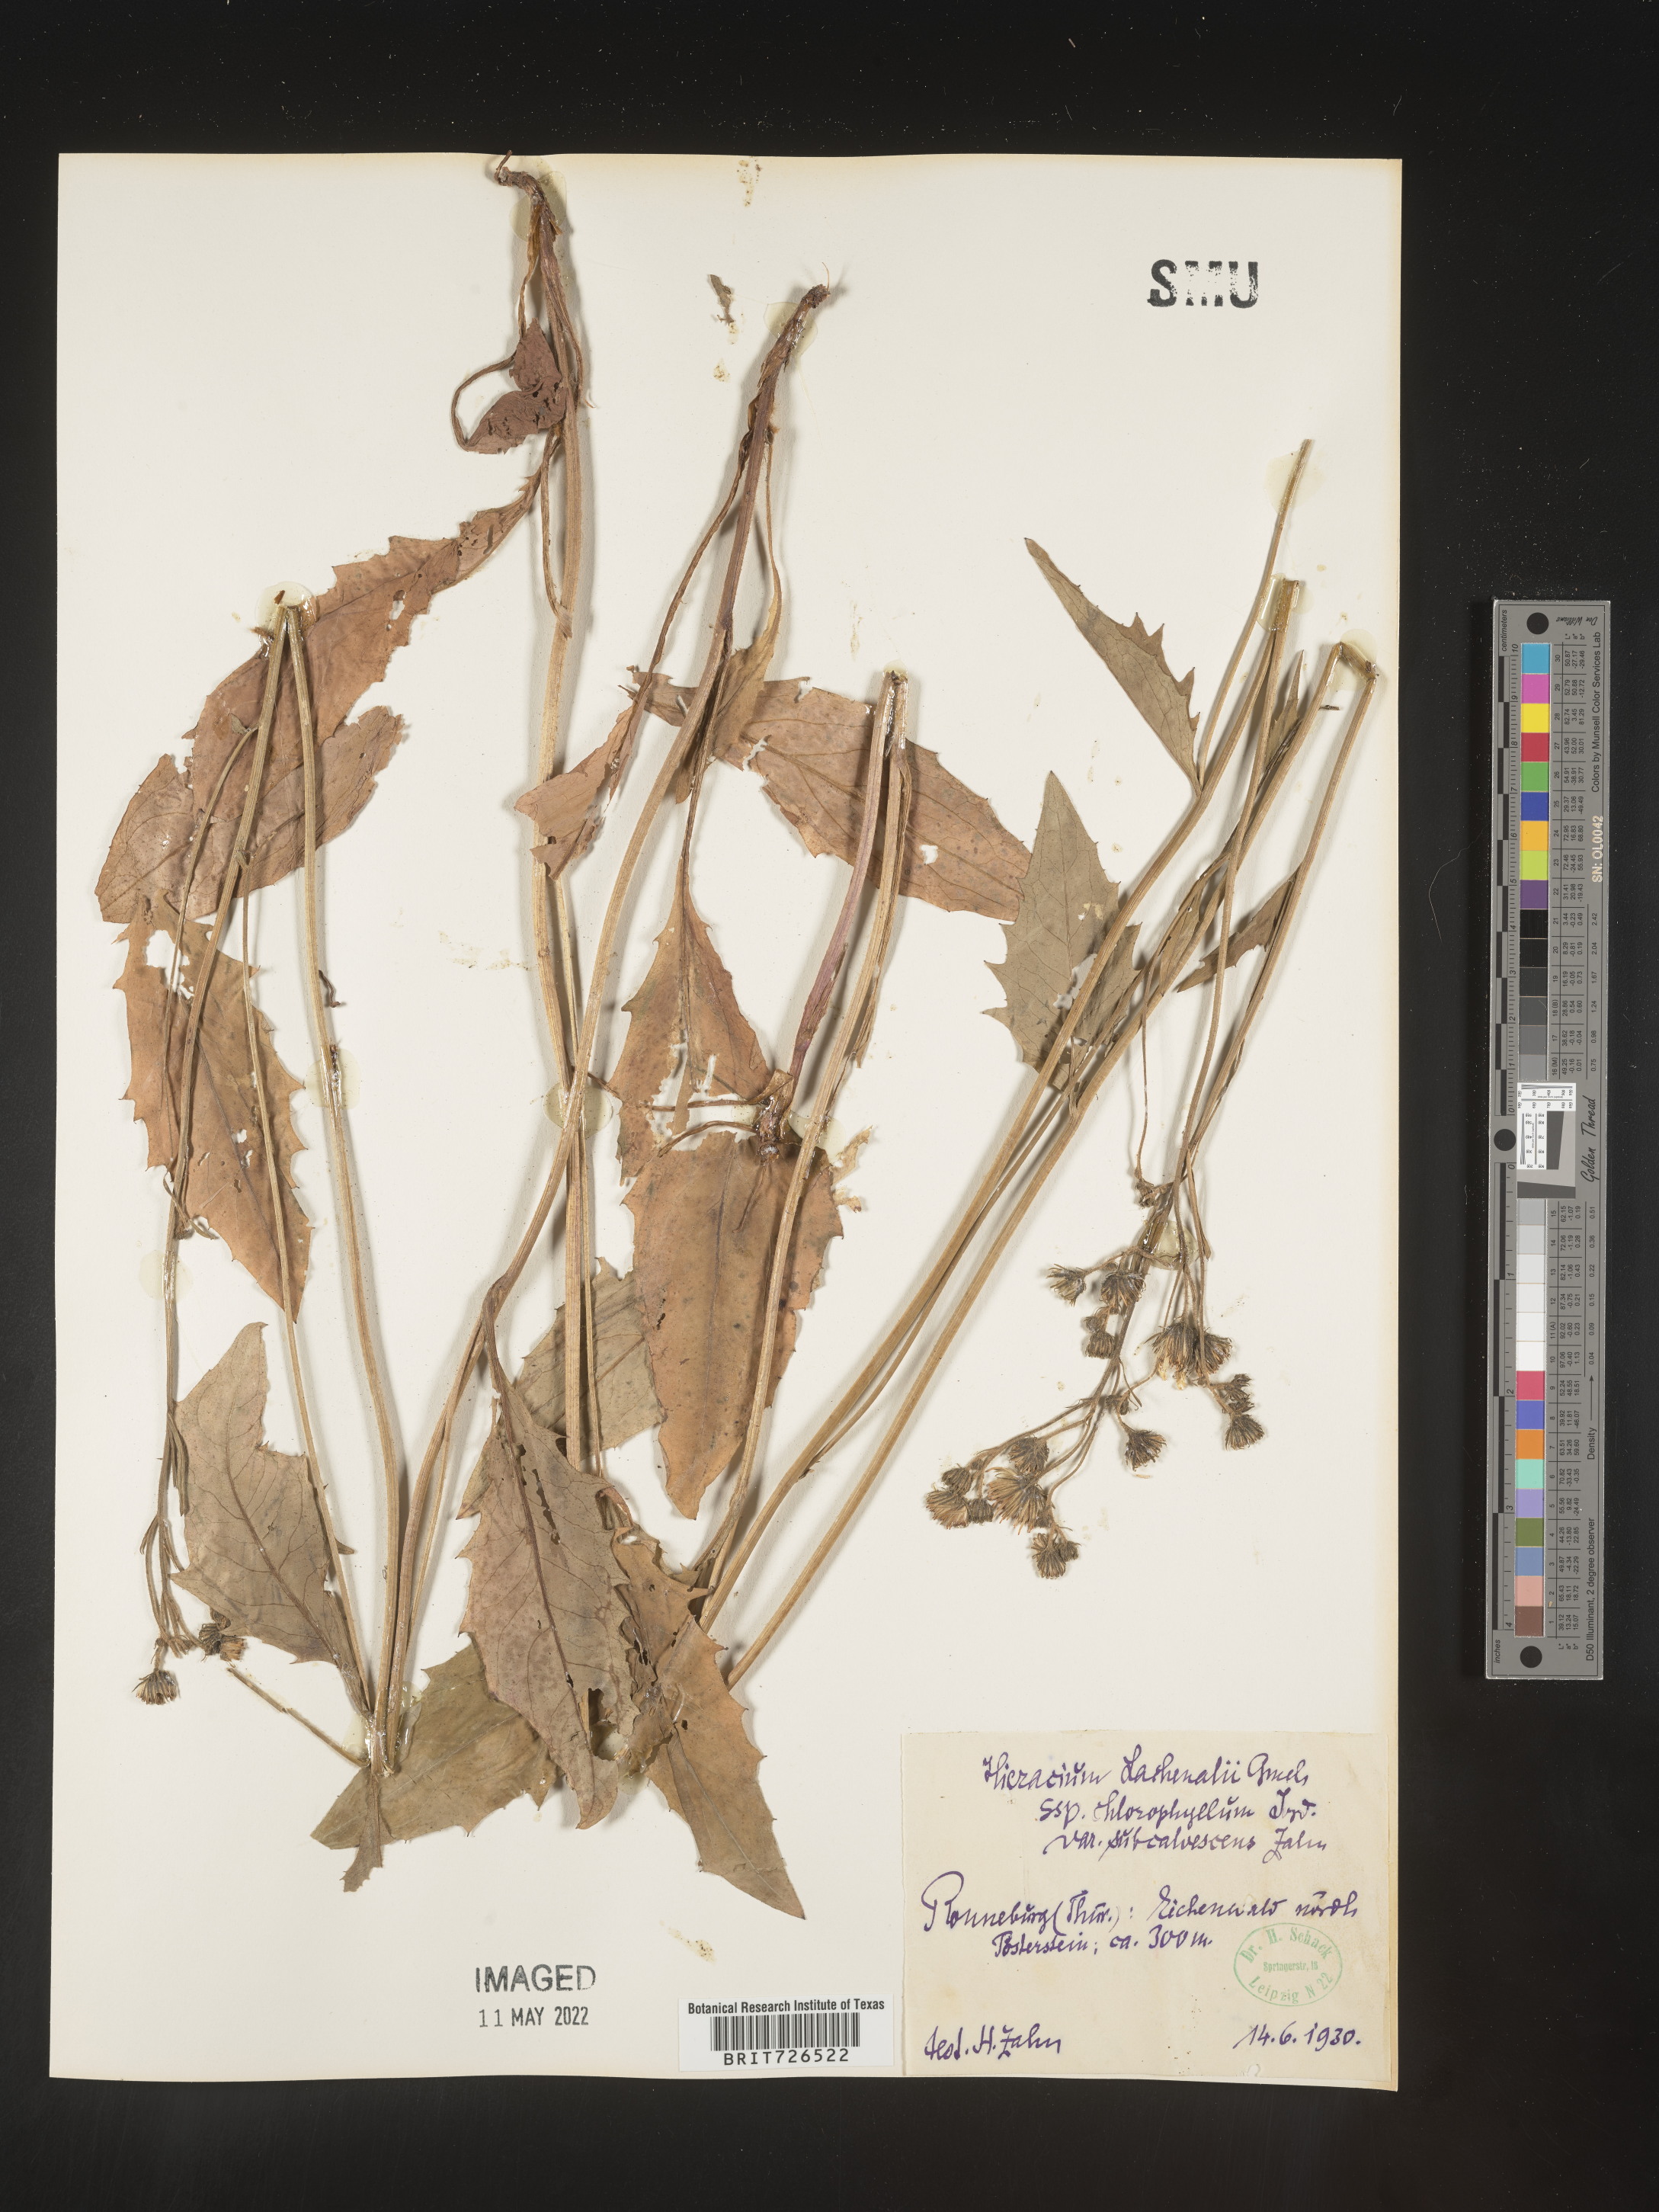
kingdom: Plantae
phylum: Tracheophyta
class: Magnoliopsida
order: Asterales
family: Asteraceae
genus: Hieracium
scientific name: Hieracium
